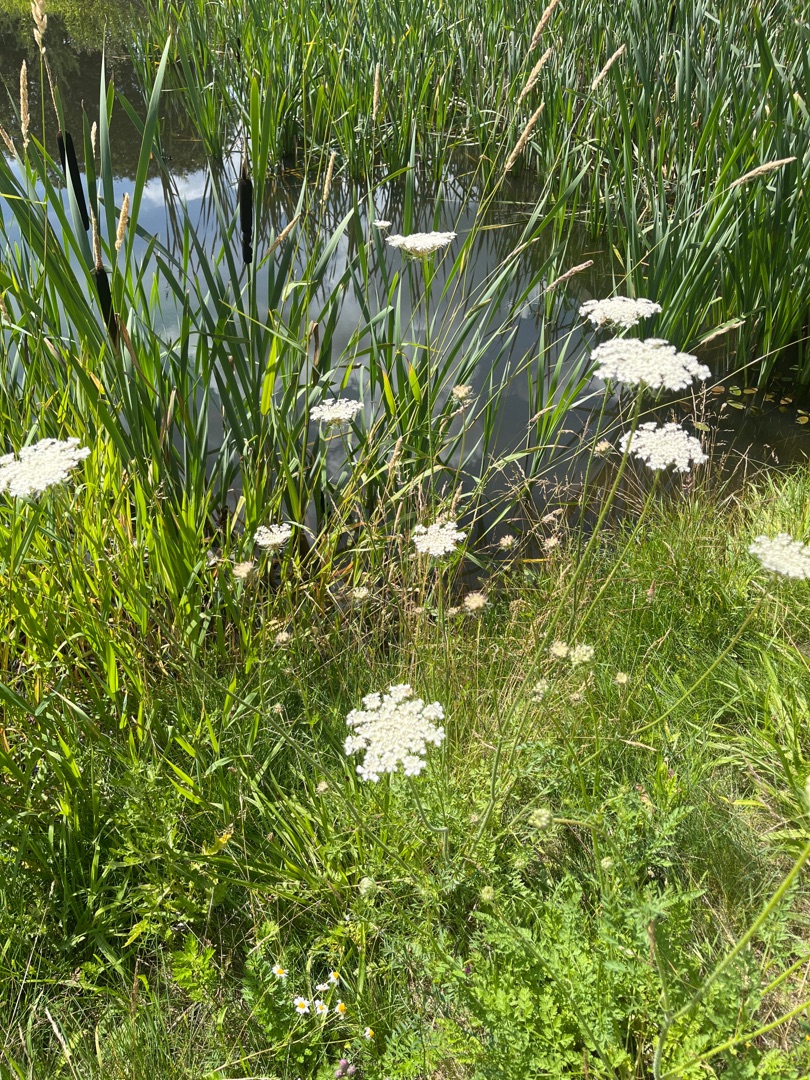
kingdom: Plantae
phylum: Tracheophyta
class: Magnoliopsida
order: Apiales
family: Apiaceae
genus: Daucus
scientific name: Daucus carota
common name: Gulerod
